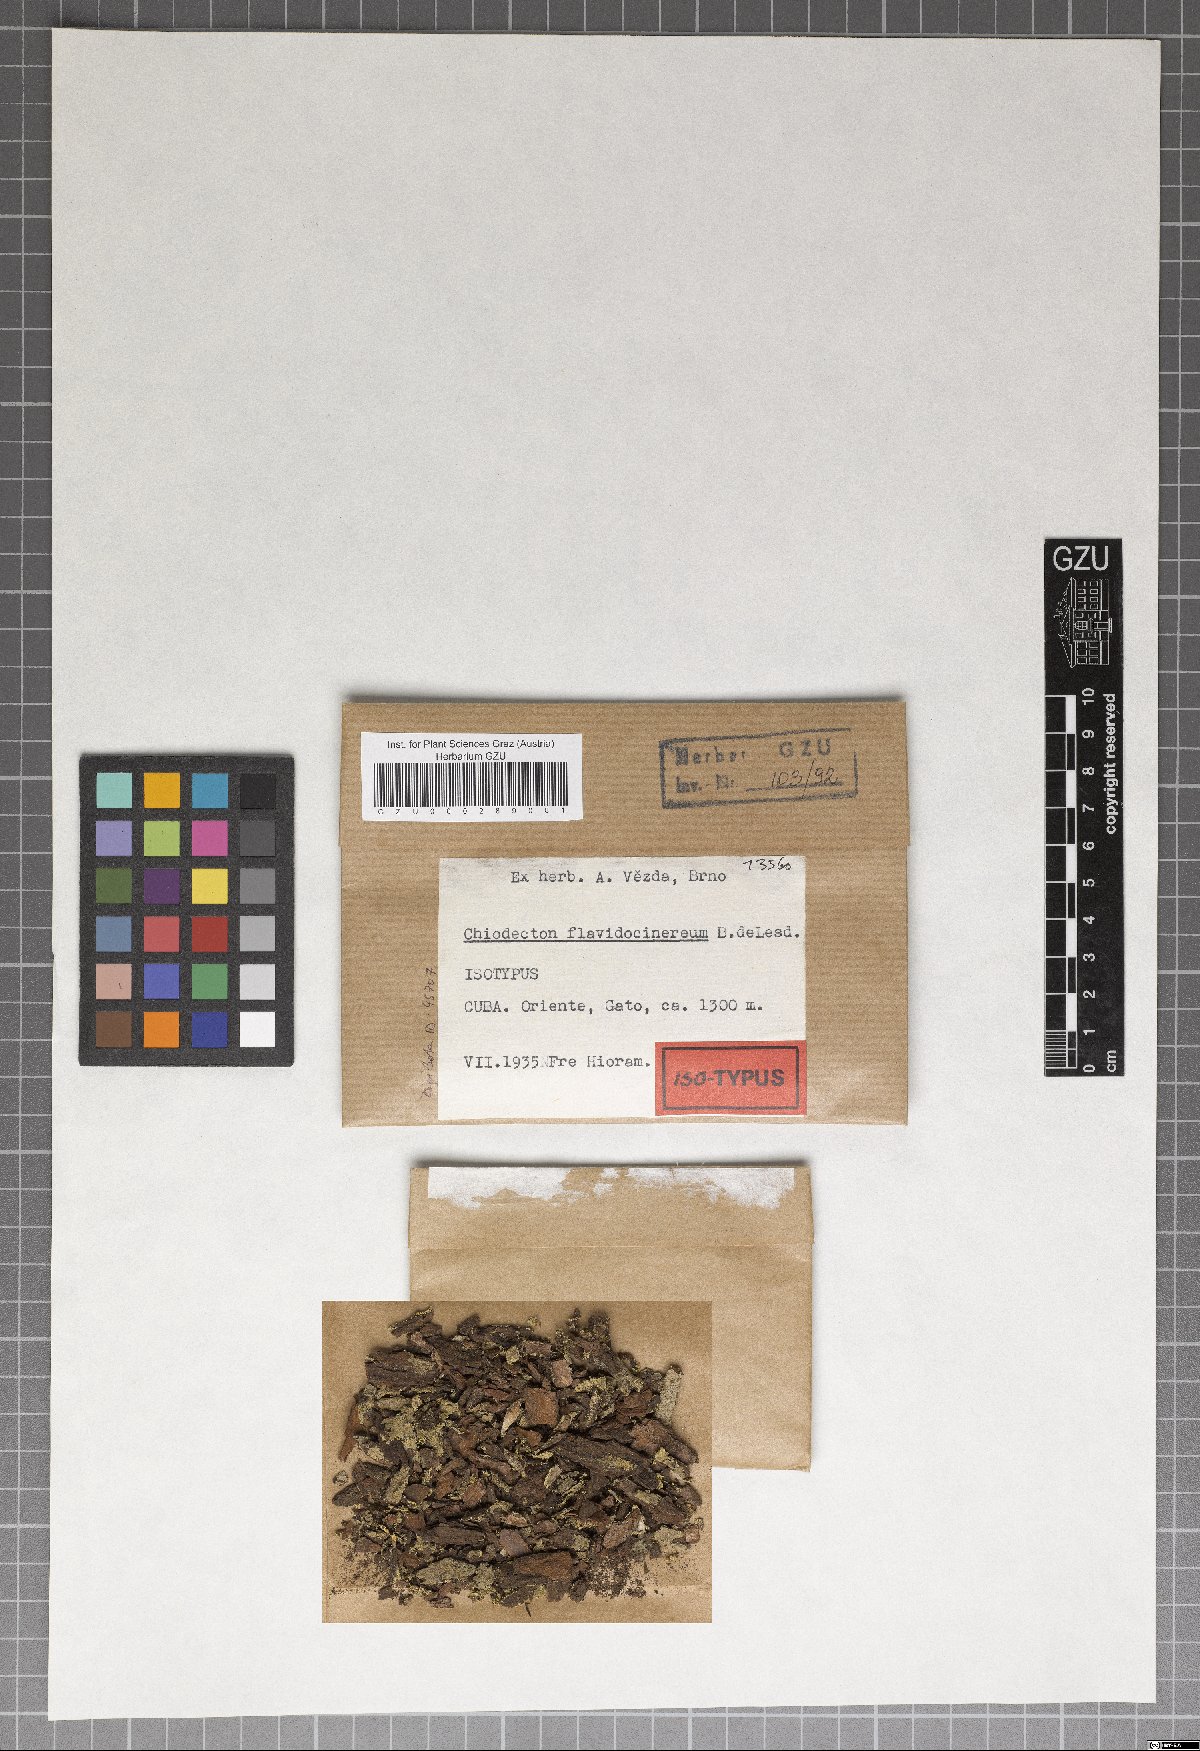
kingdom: Fungi
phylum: Ascomycota
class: Arthoniomycetes
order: Arthoniales
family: Roccellaceae
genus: Chiodecton
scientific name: Chiodecton
